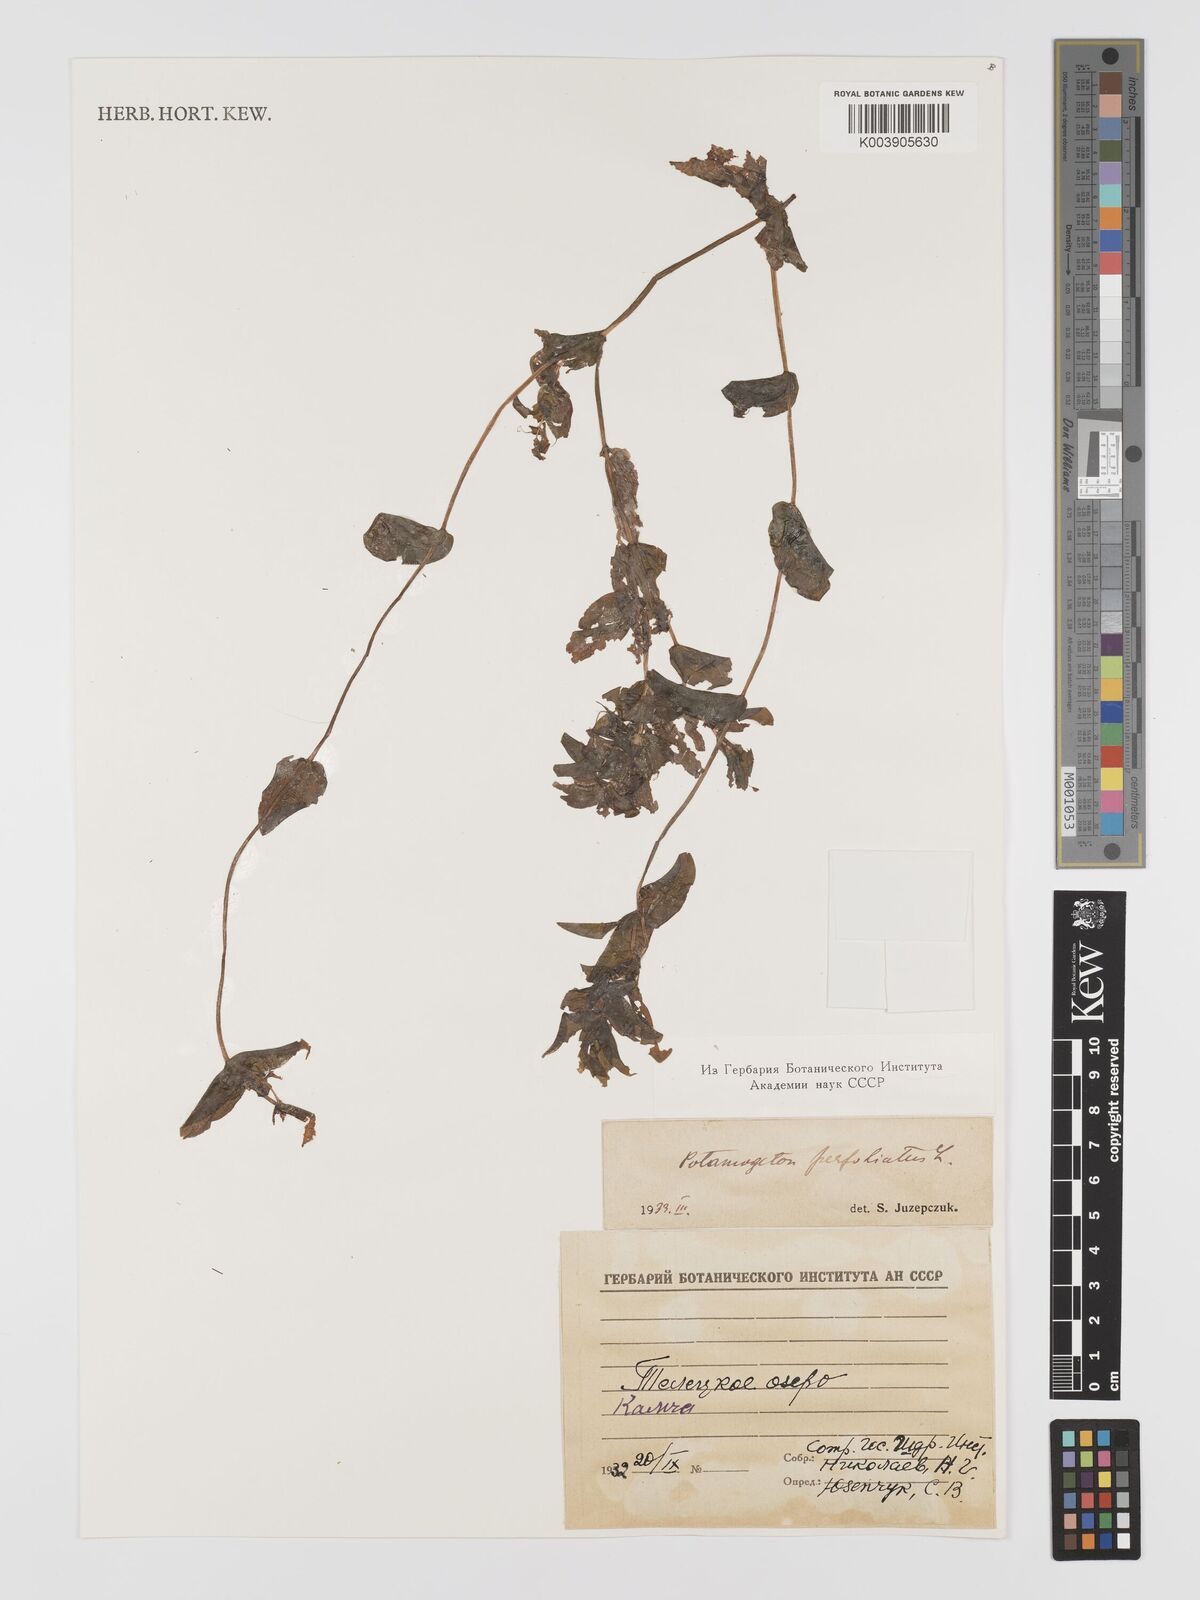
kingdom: Plantae
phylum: Tracheophyta
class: Liliopsida
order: Alismatales
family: Potamogetonaceae
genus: Potamogeton
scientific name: Potamogeton perfoliatus
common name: Perfoliate pondweed
